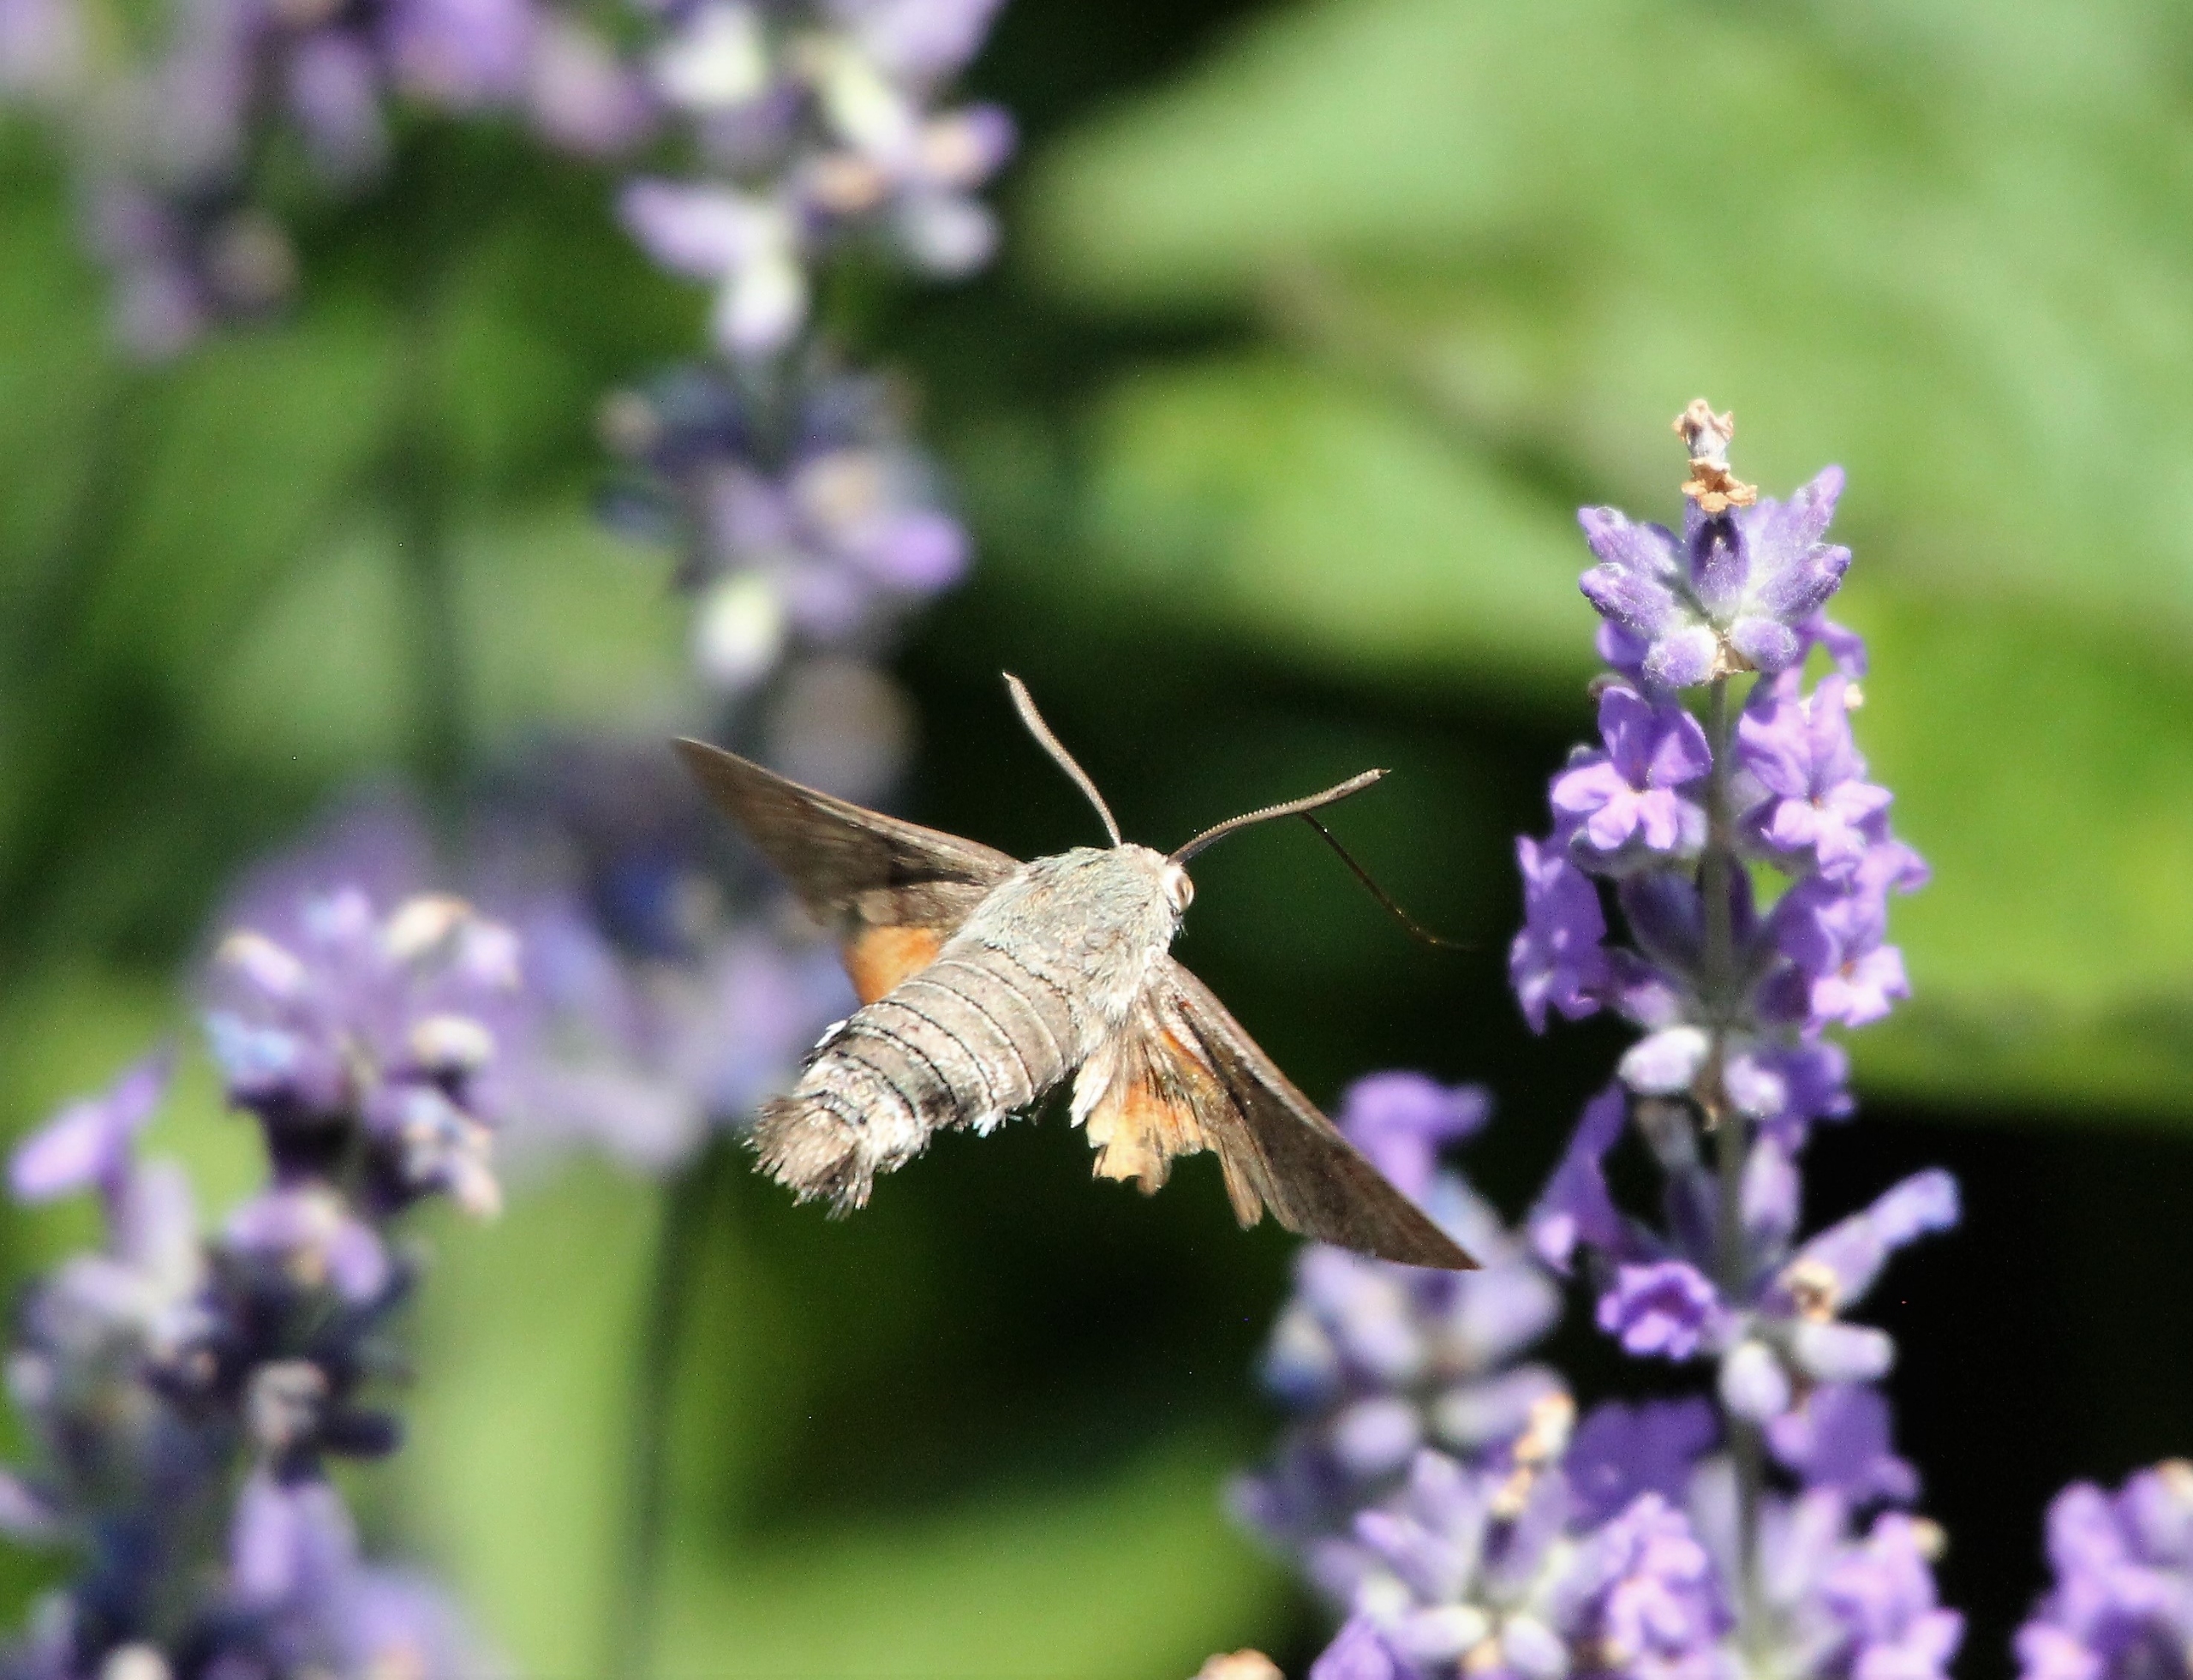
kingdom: Animalia
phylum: Arthropoda
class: Insecta
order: Lepidoptera
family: Sphingidae
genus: Macroglossum
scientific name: Macroglossum stellatarum
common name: Duehale
